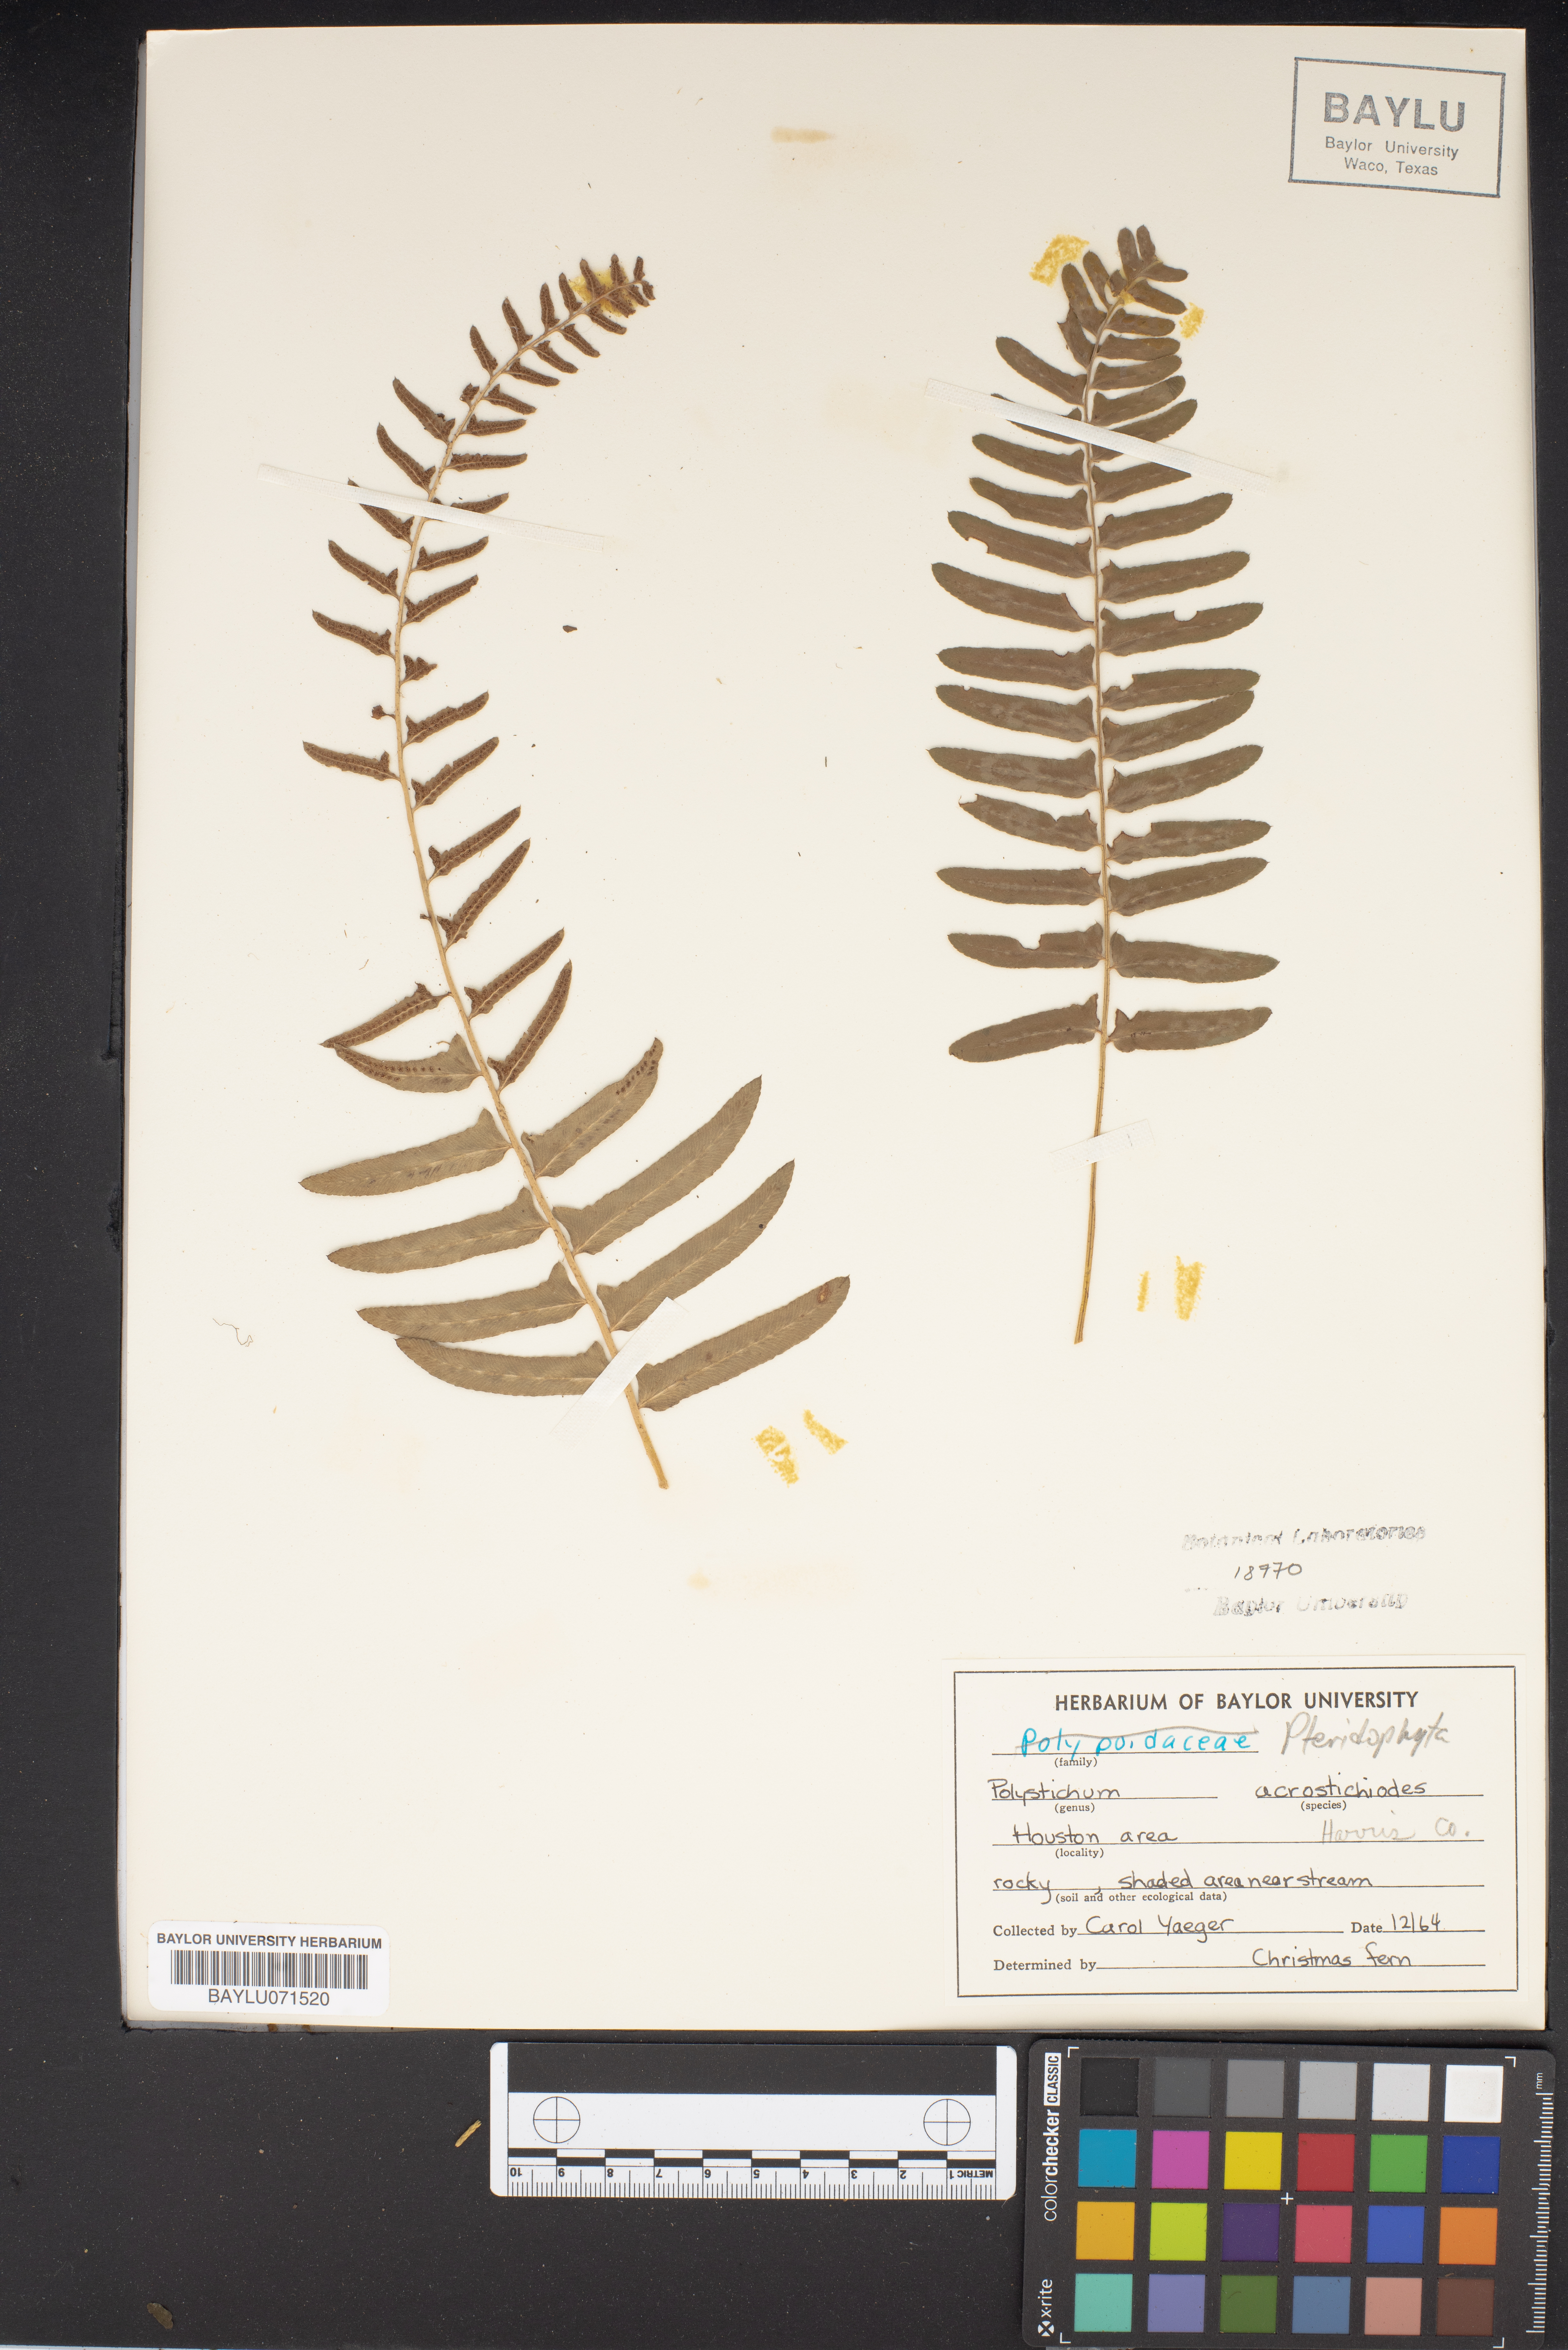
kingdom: Plantae
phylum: Tracheophyta
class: Polypodiopsida
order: Polypodiales
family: Dryopteridaceae
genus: Polystichum
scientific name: Polystichum acrostichoides
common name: Christmas fern
